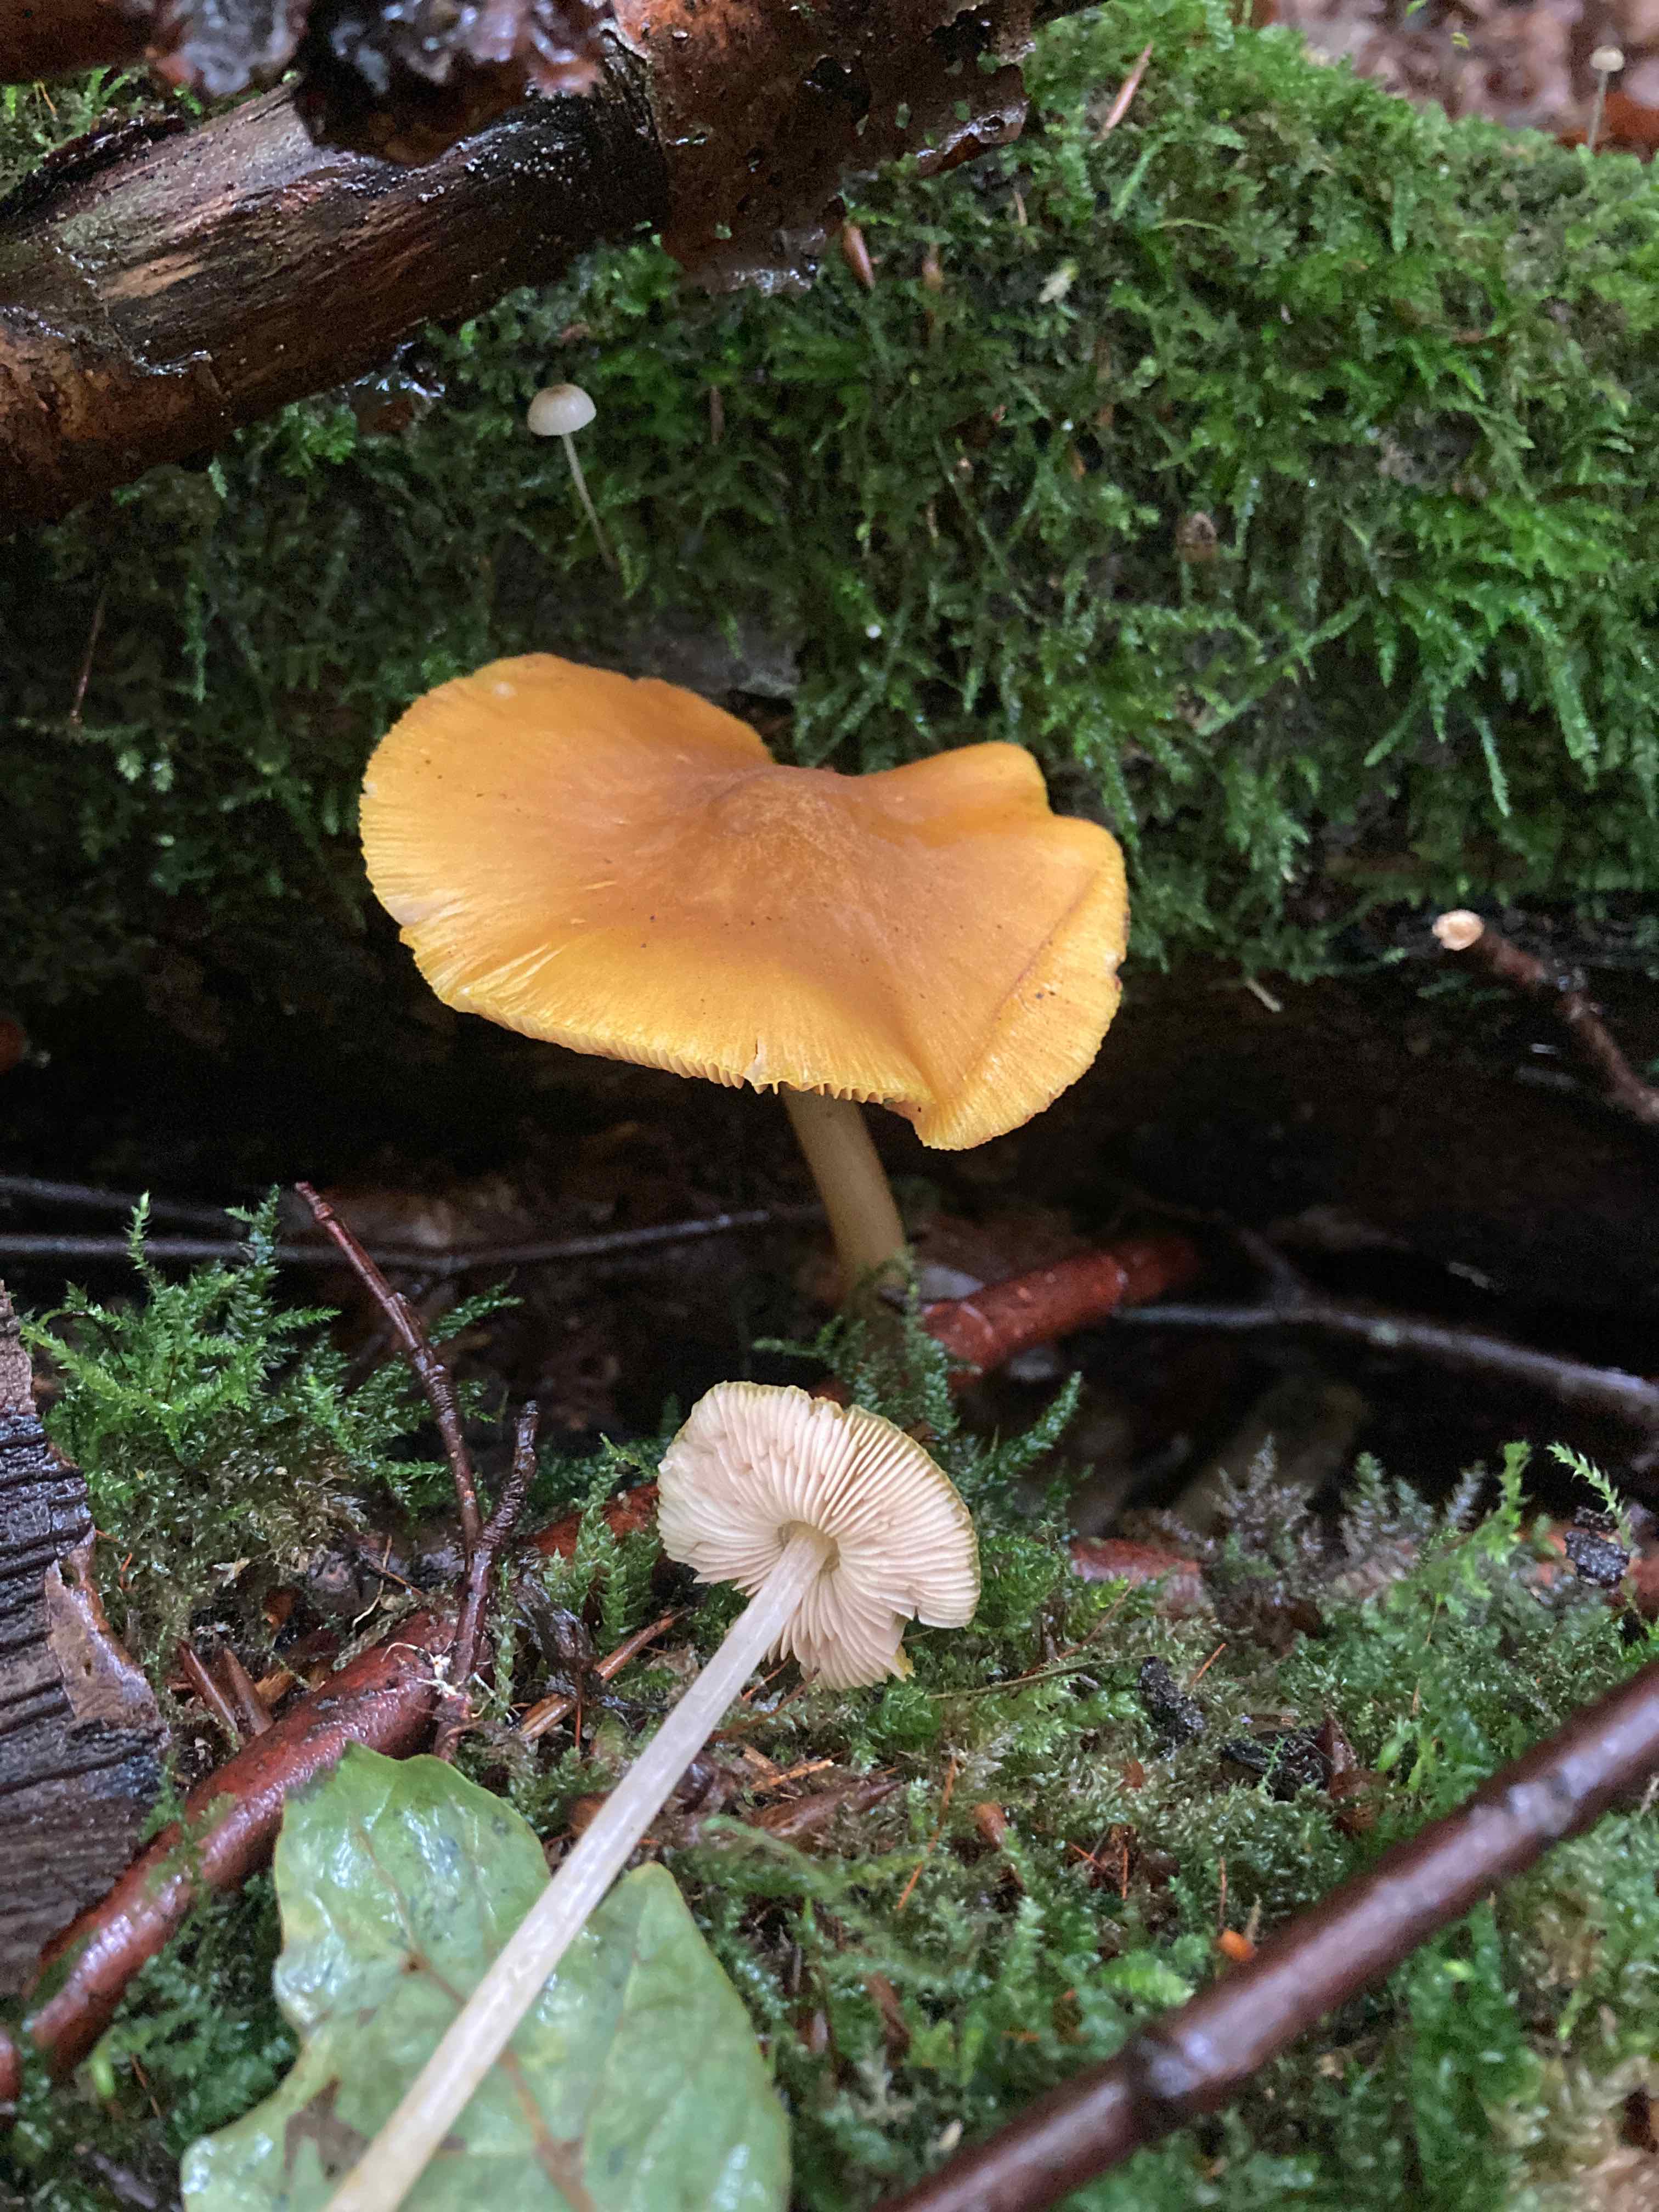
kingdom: Fungi
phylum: Basidiomycota
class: Agaricomycetes
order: Agaricales
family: Pluteaceae
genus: Pluteus
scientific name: Pluteus leoninus
